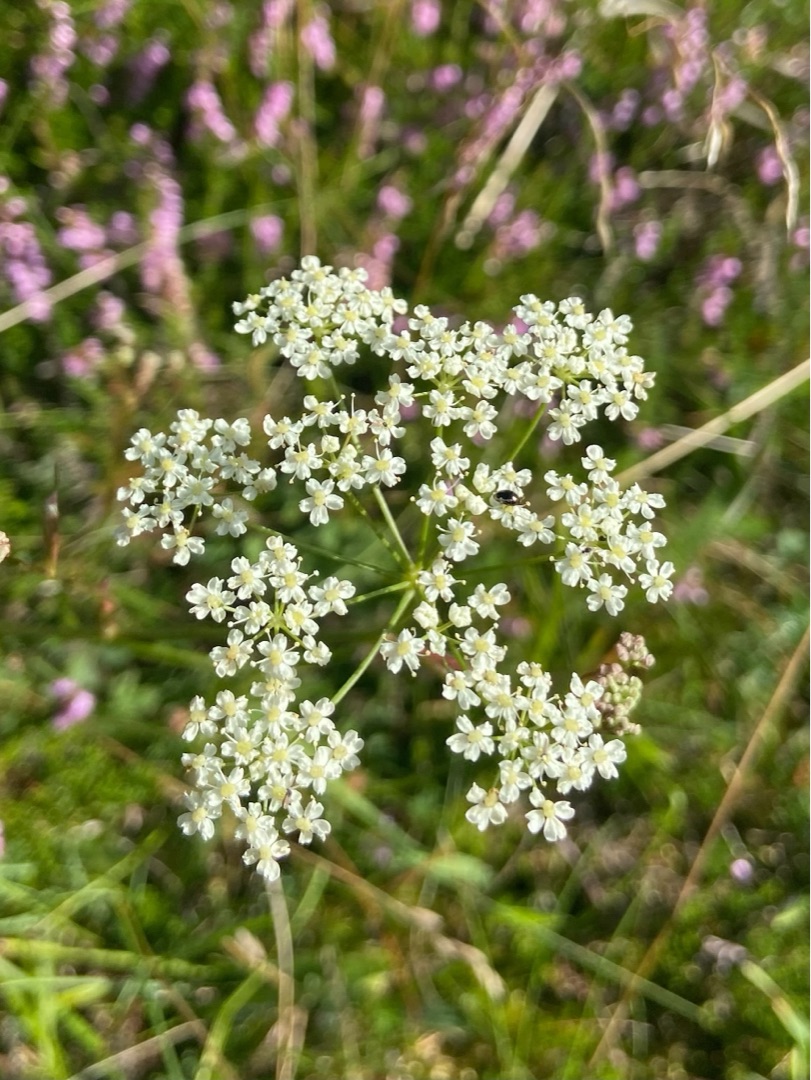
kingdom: Plantae
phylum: Tracheophyta
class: Magnoliopsida
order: Apiales
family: Apiaceae
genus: Pimpinella
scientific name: Pimpinella saxifraga
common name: Almindelig pimpinelle
